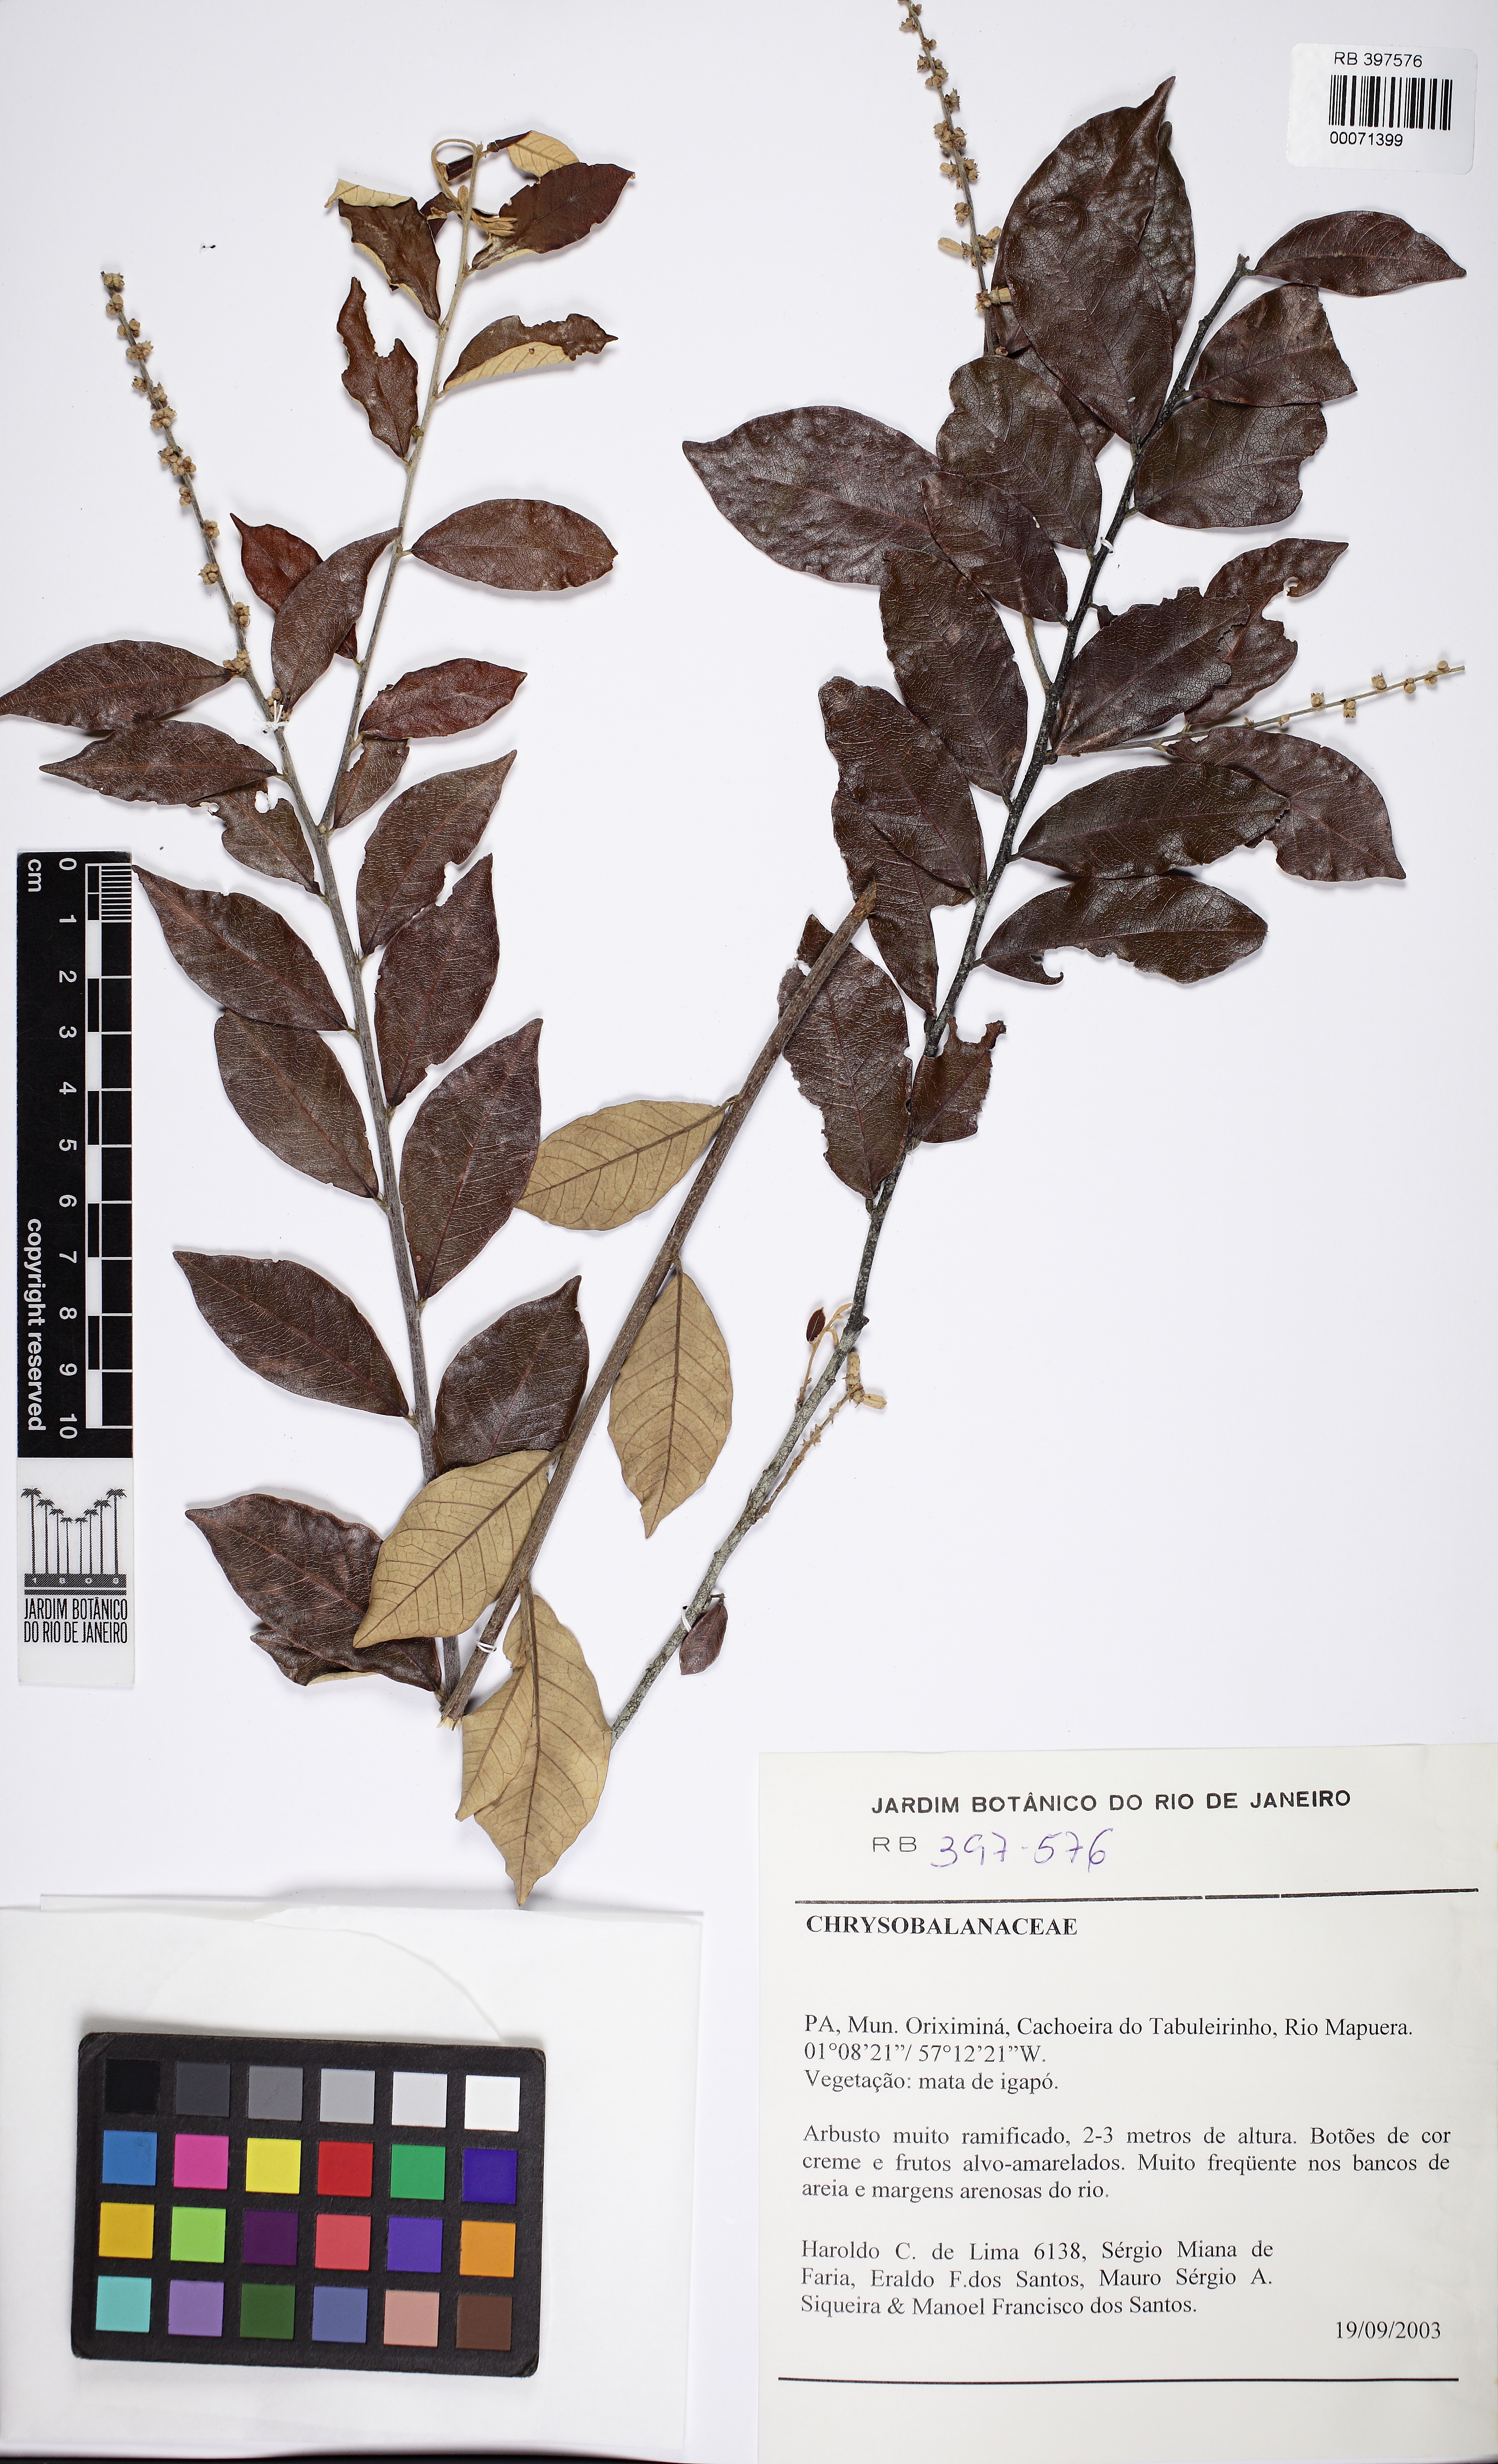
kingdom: Plantae
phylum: Tracheophyta
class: Magnoliopsida
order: Malpighiales
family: Chrysobalanaceae
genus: Licania
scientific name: Licania leptostachya
